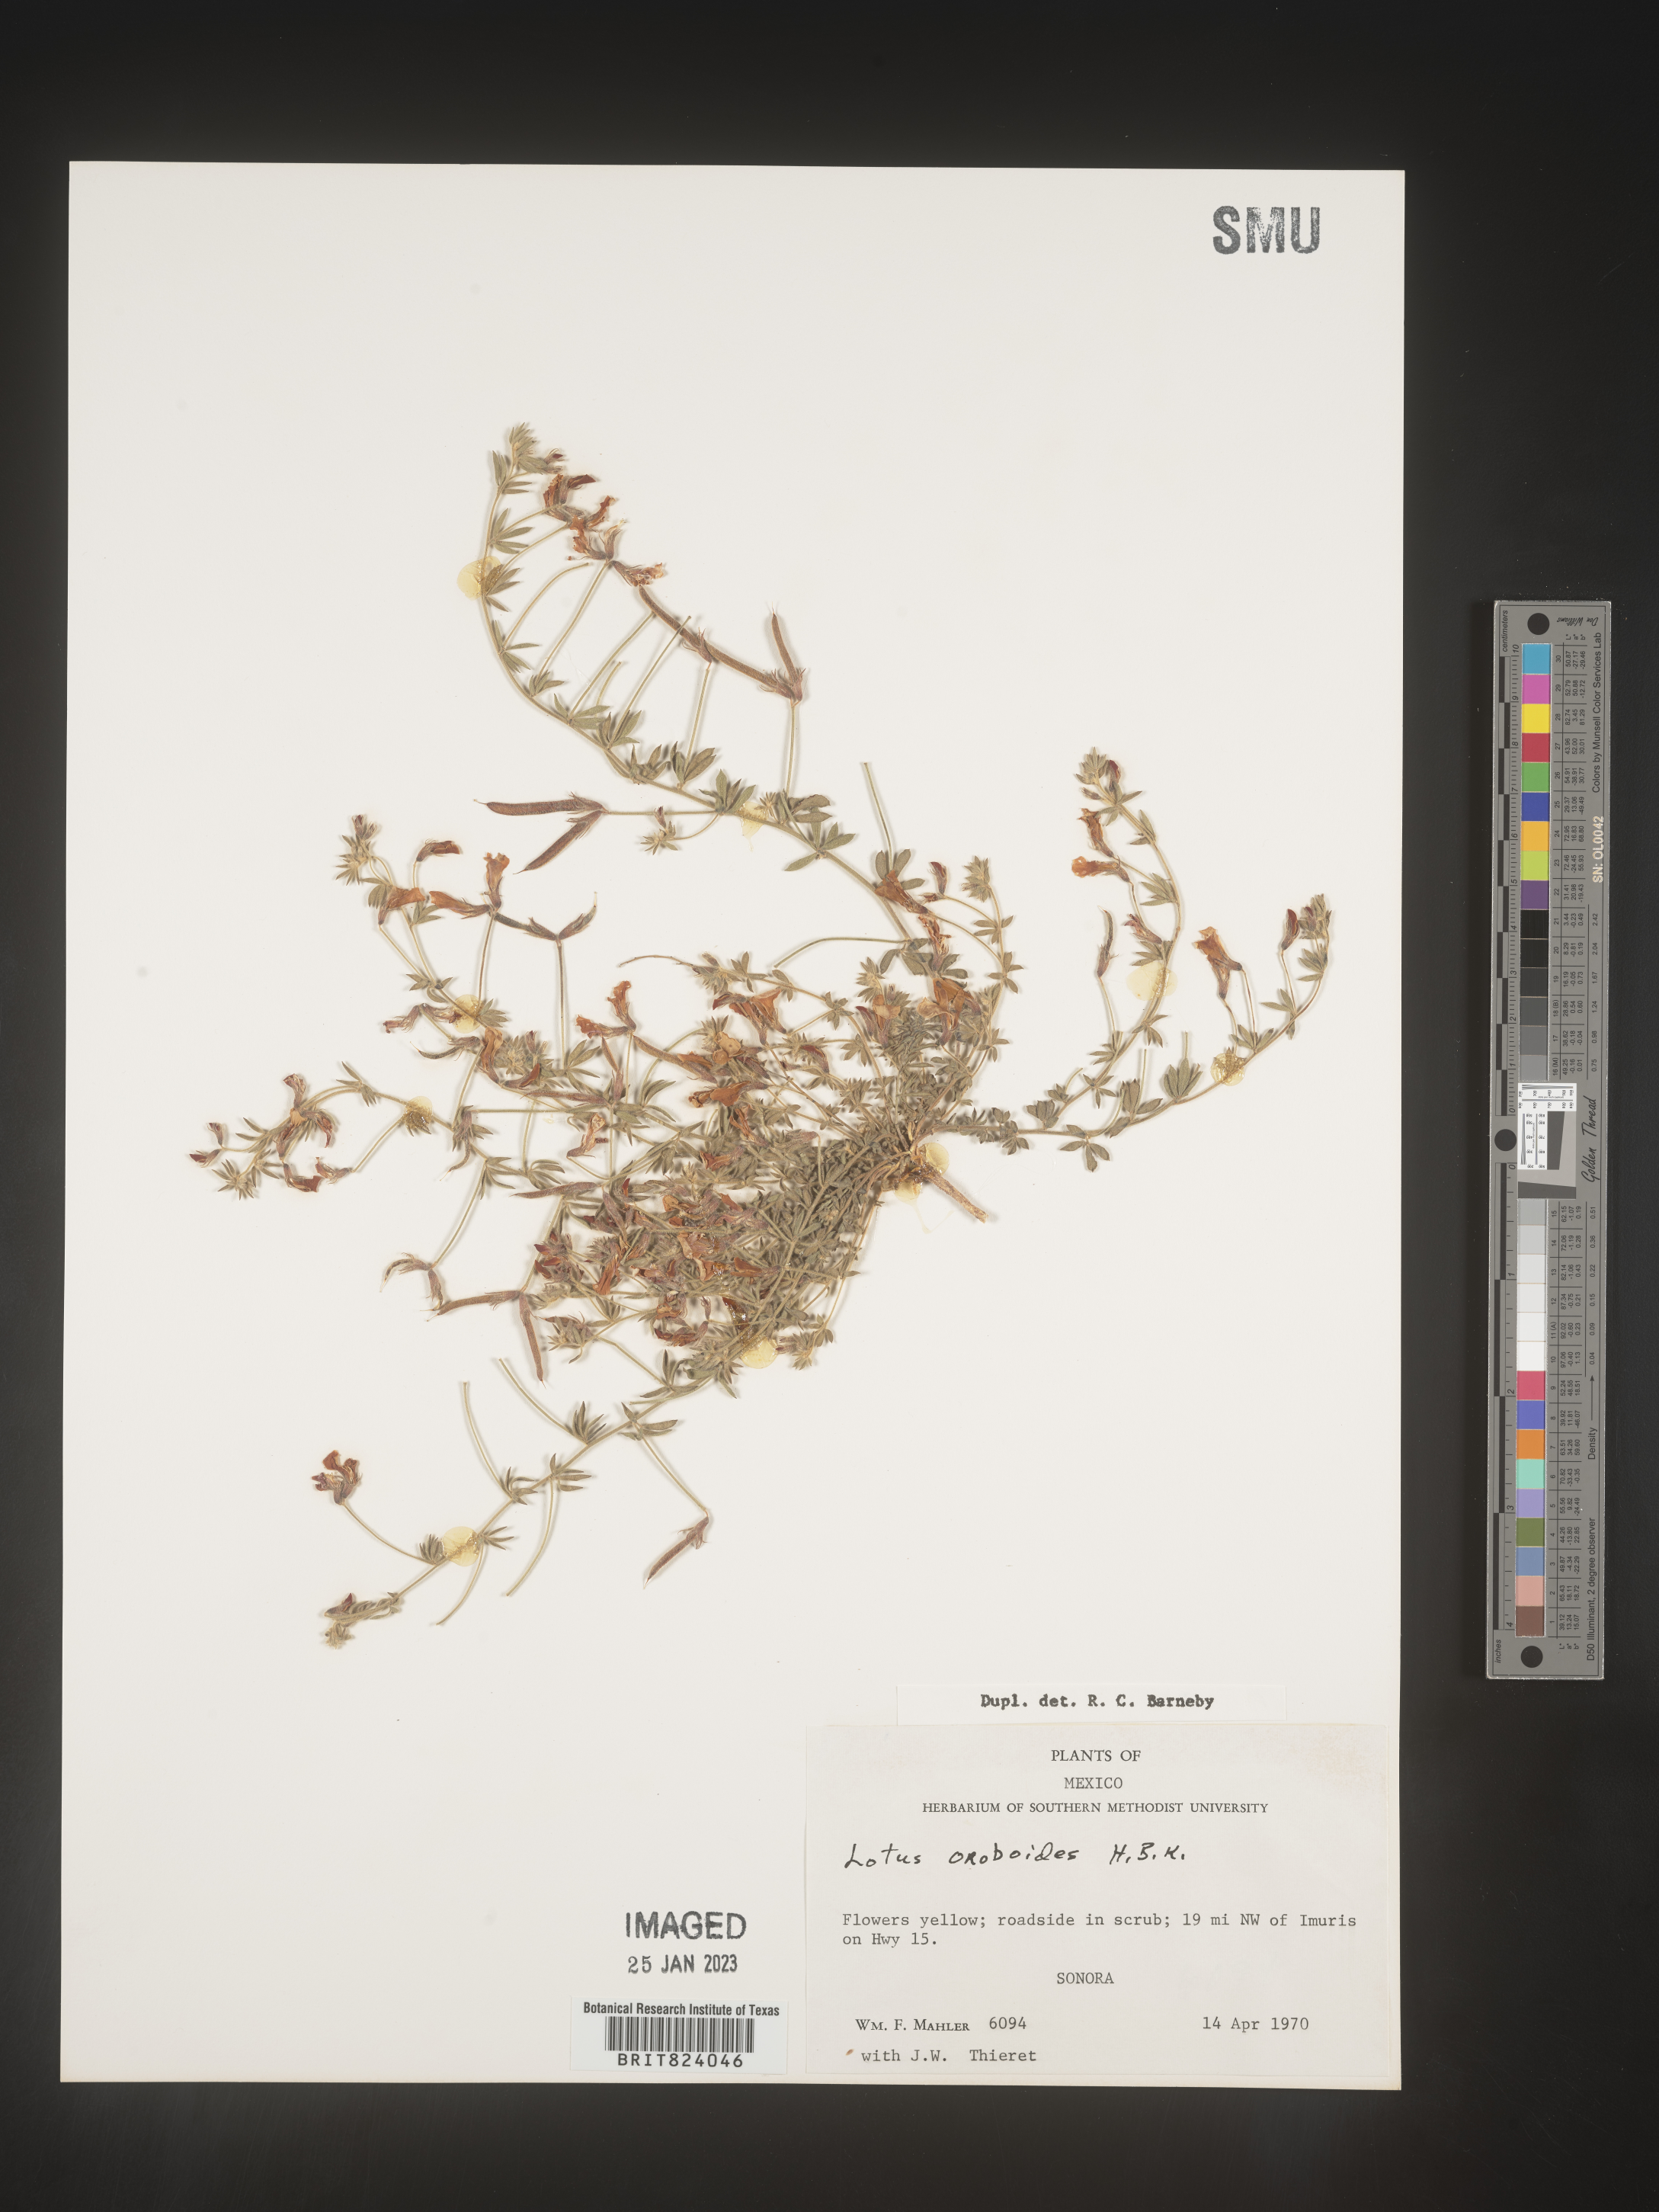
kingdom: Plantae
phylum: Tracheophyta
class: Magnoliopsida
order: Fabales
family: Fabaceae
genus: Lotus
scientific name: Lotus
